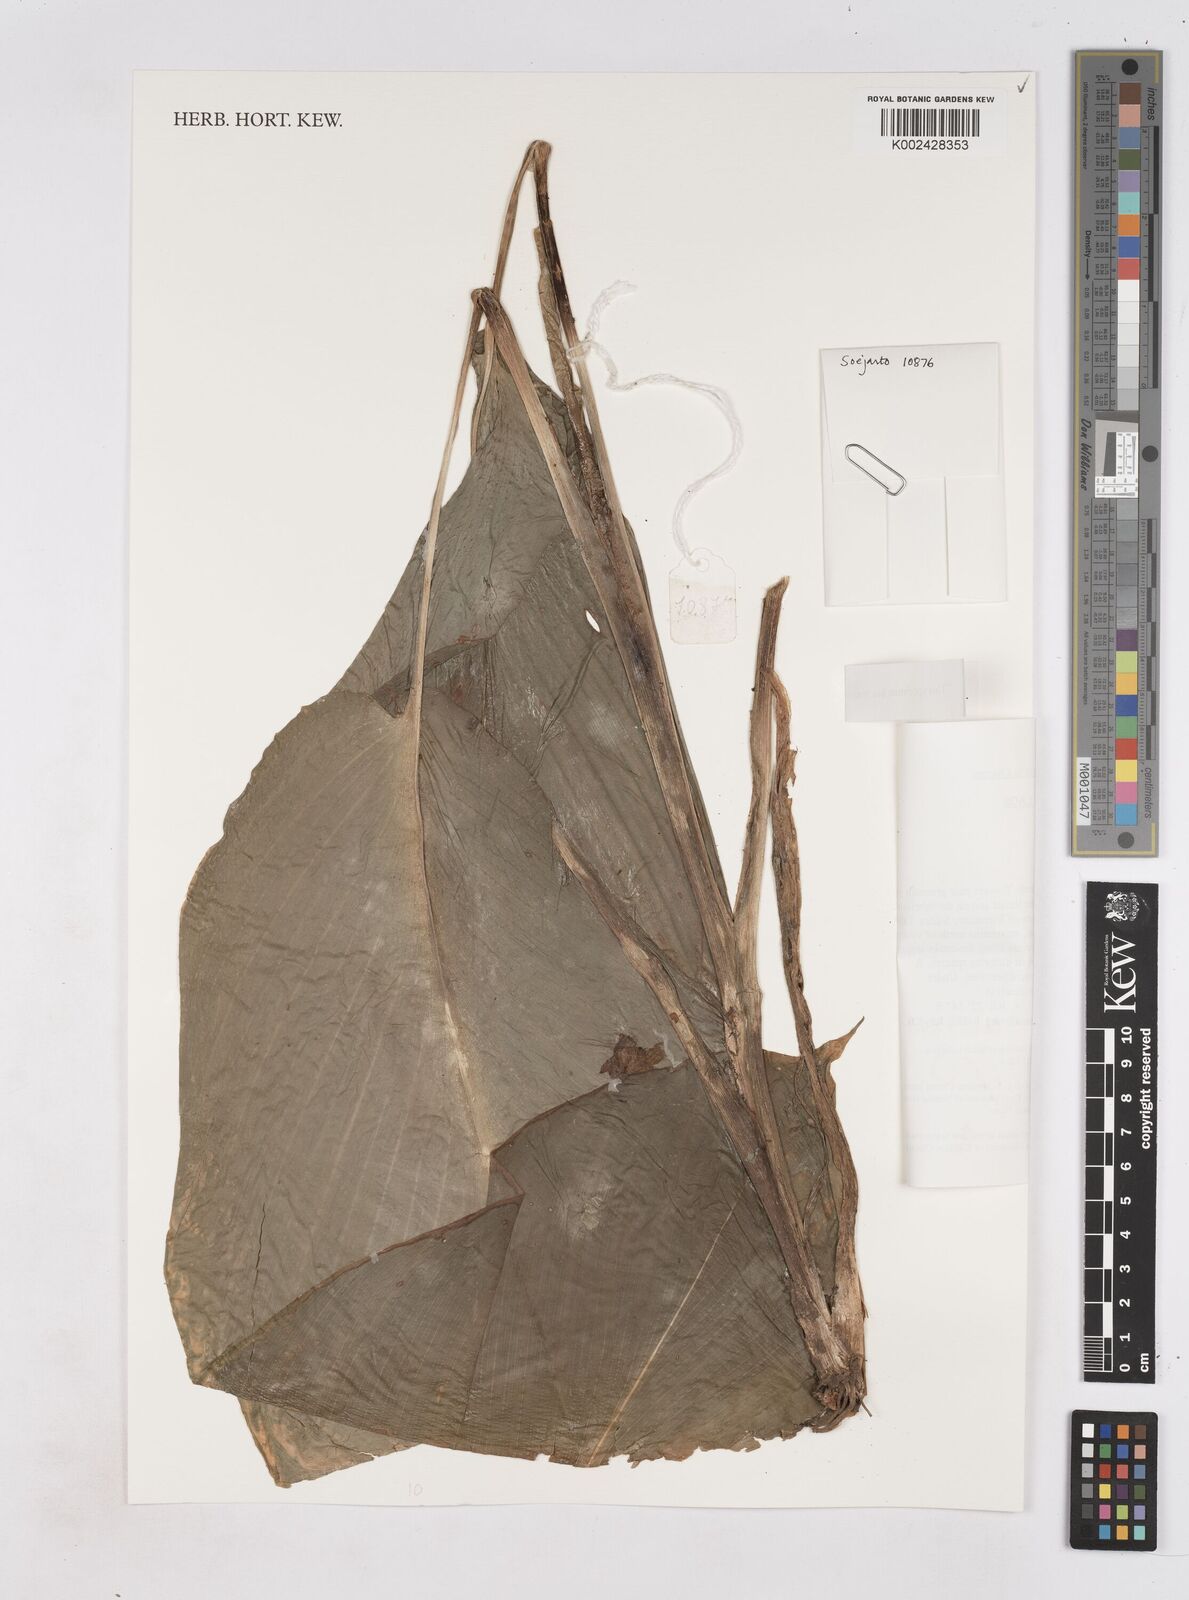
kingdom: Plantae
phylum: Tracheophyta
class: Liliopsida
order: Zingiberales
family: Zingiberaceae
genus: Boesenbergia
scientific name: Boesenbergia
